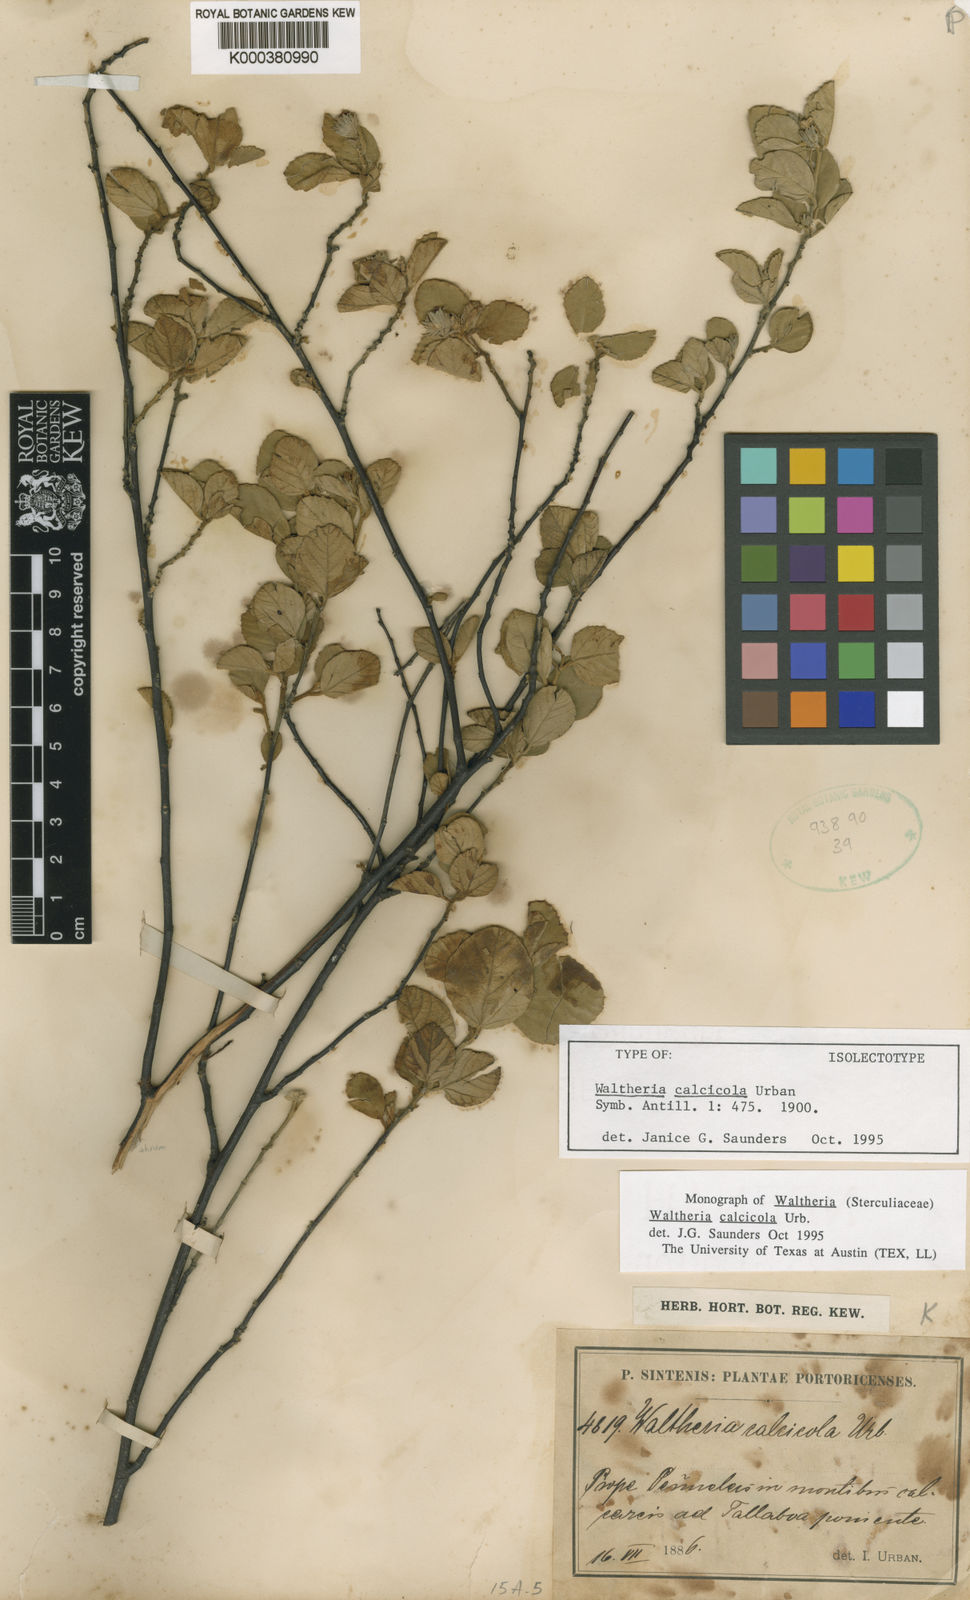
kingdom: Plantae
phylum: Tracheophyta
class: Magnoliopsida
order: Malvales
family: Malvaceae
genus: Waltheria
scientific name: Waltheria calcicola
